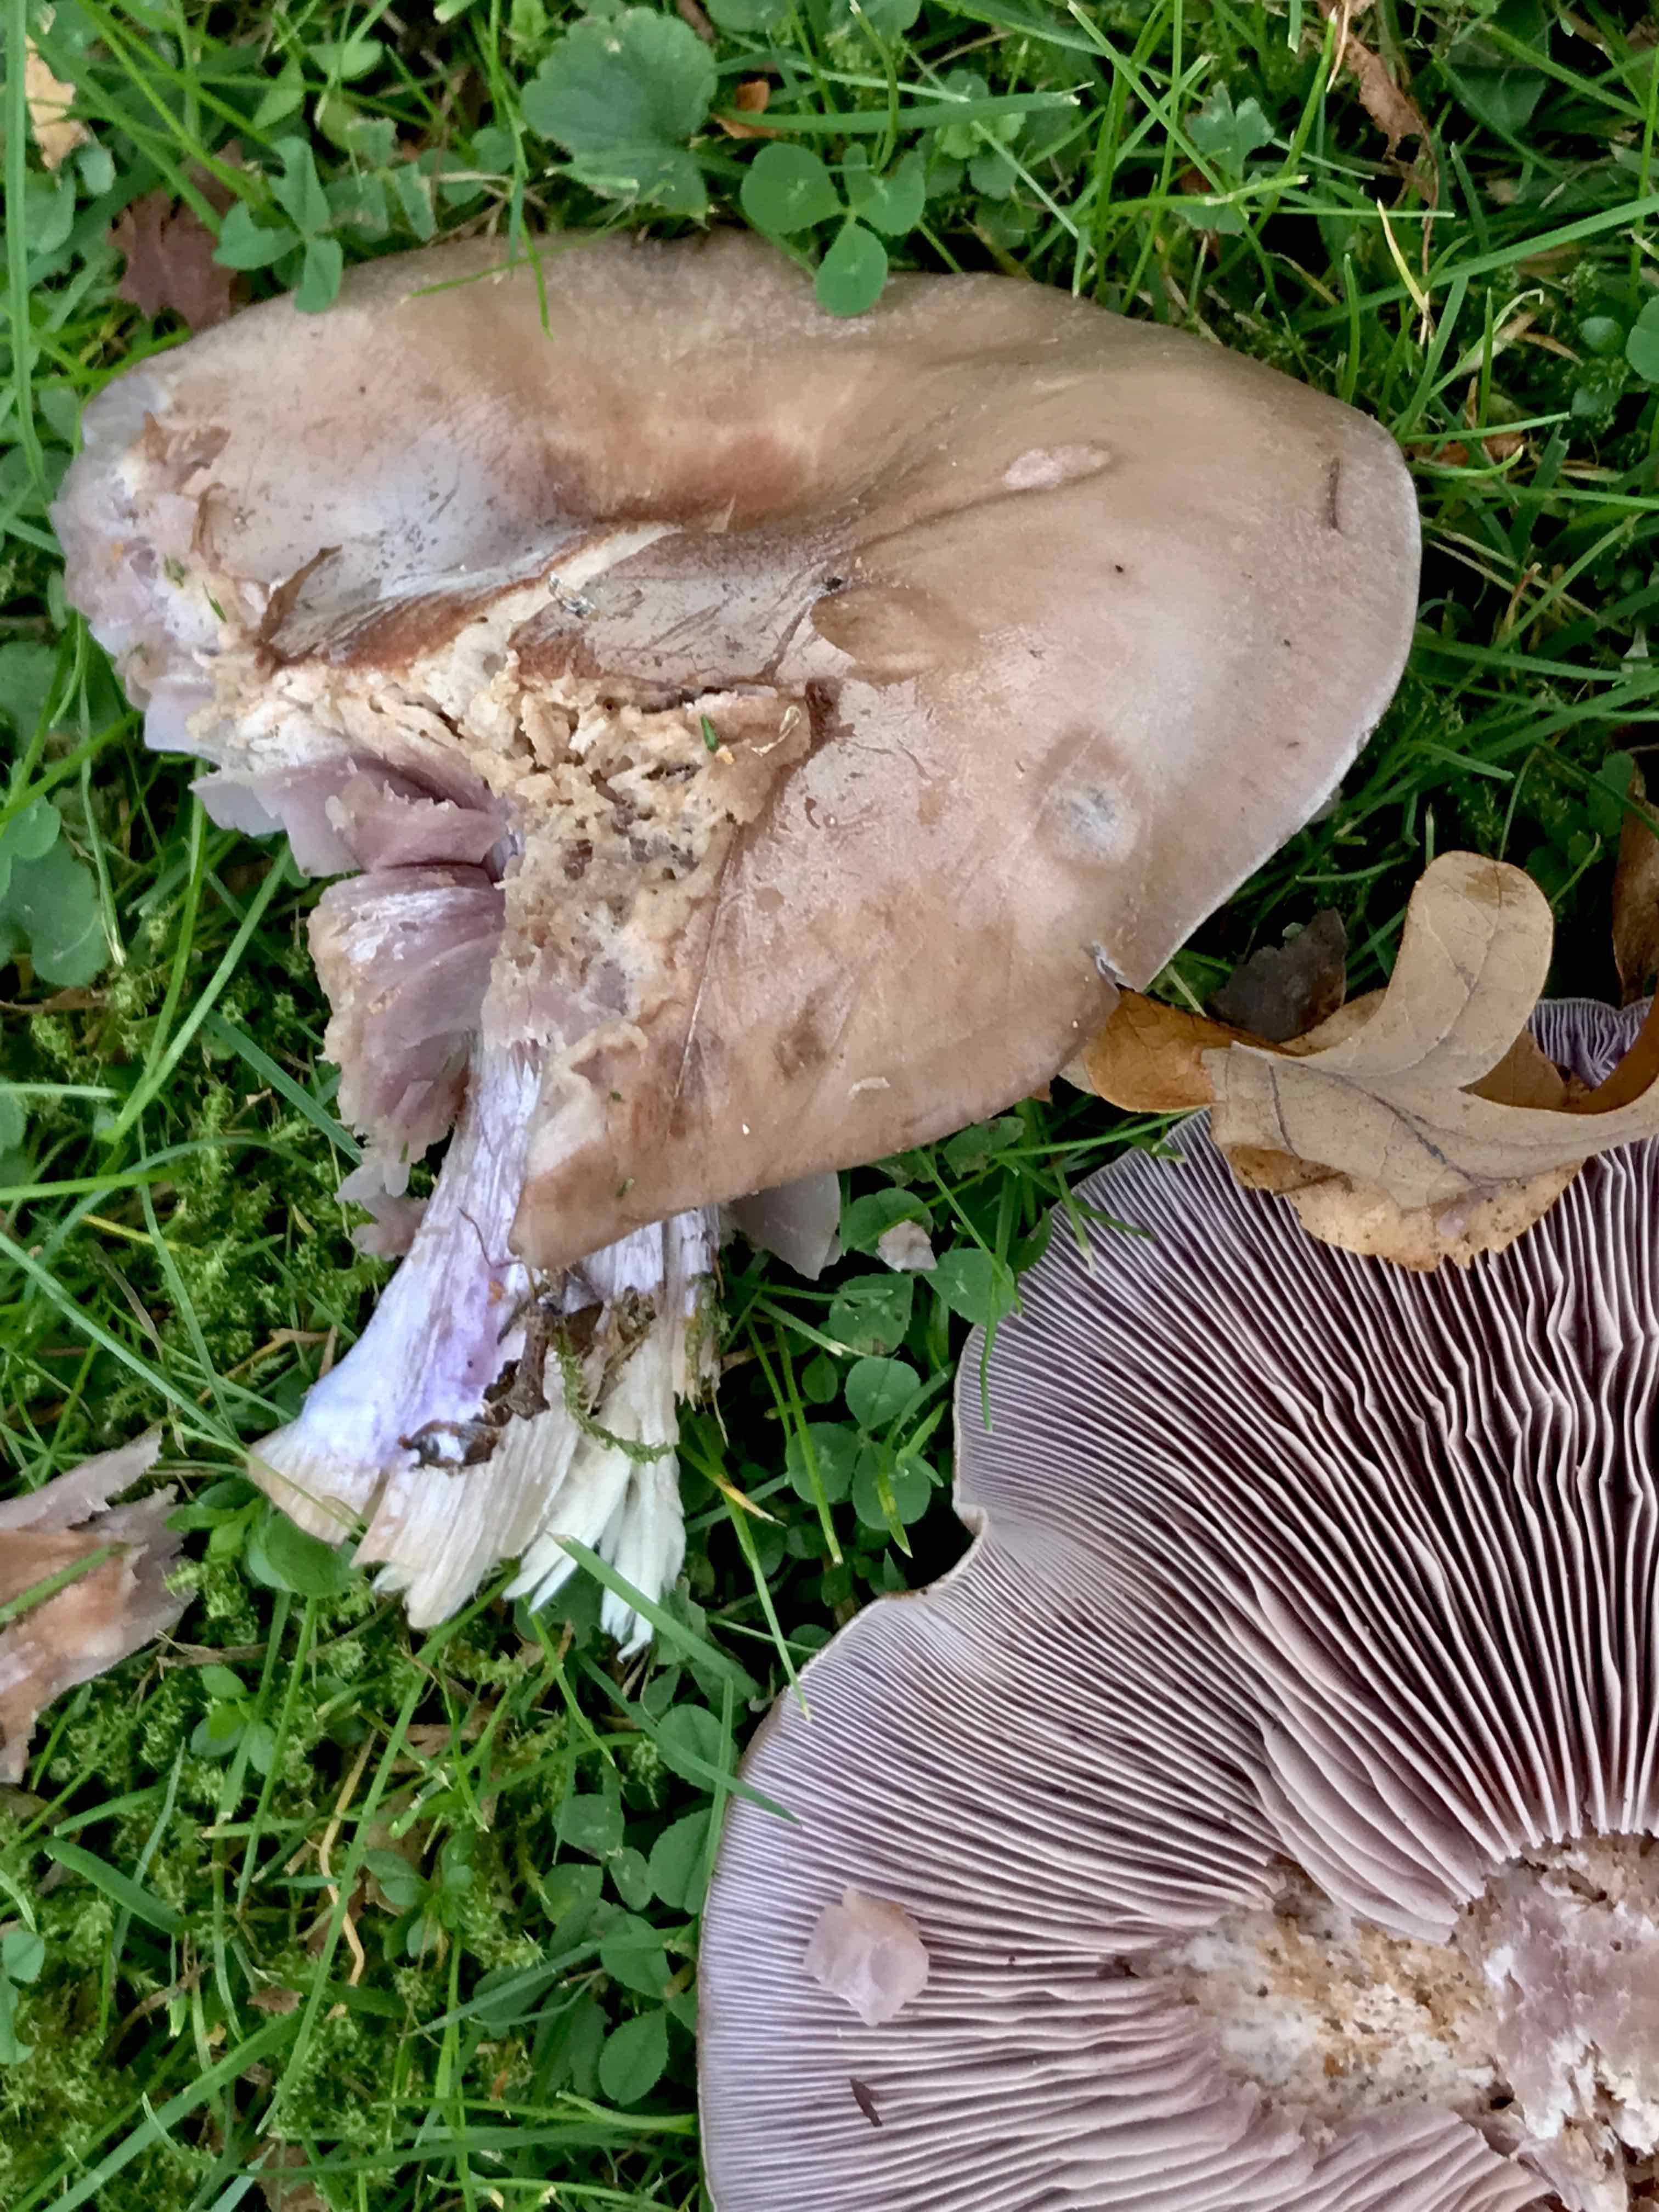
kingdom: Fungi
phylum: Basidiomycota
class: Agaricomycetes
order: Agaricales
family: Tricholomataceae
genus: Lepista
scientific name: Lepista nuda
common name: violet hekseringshat
